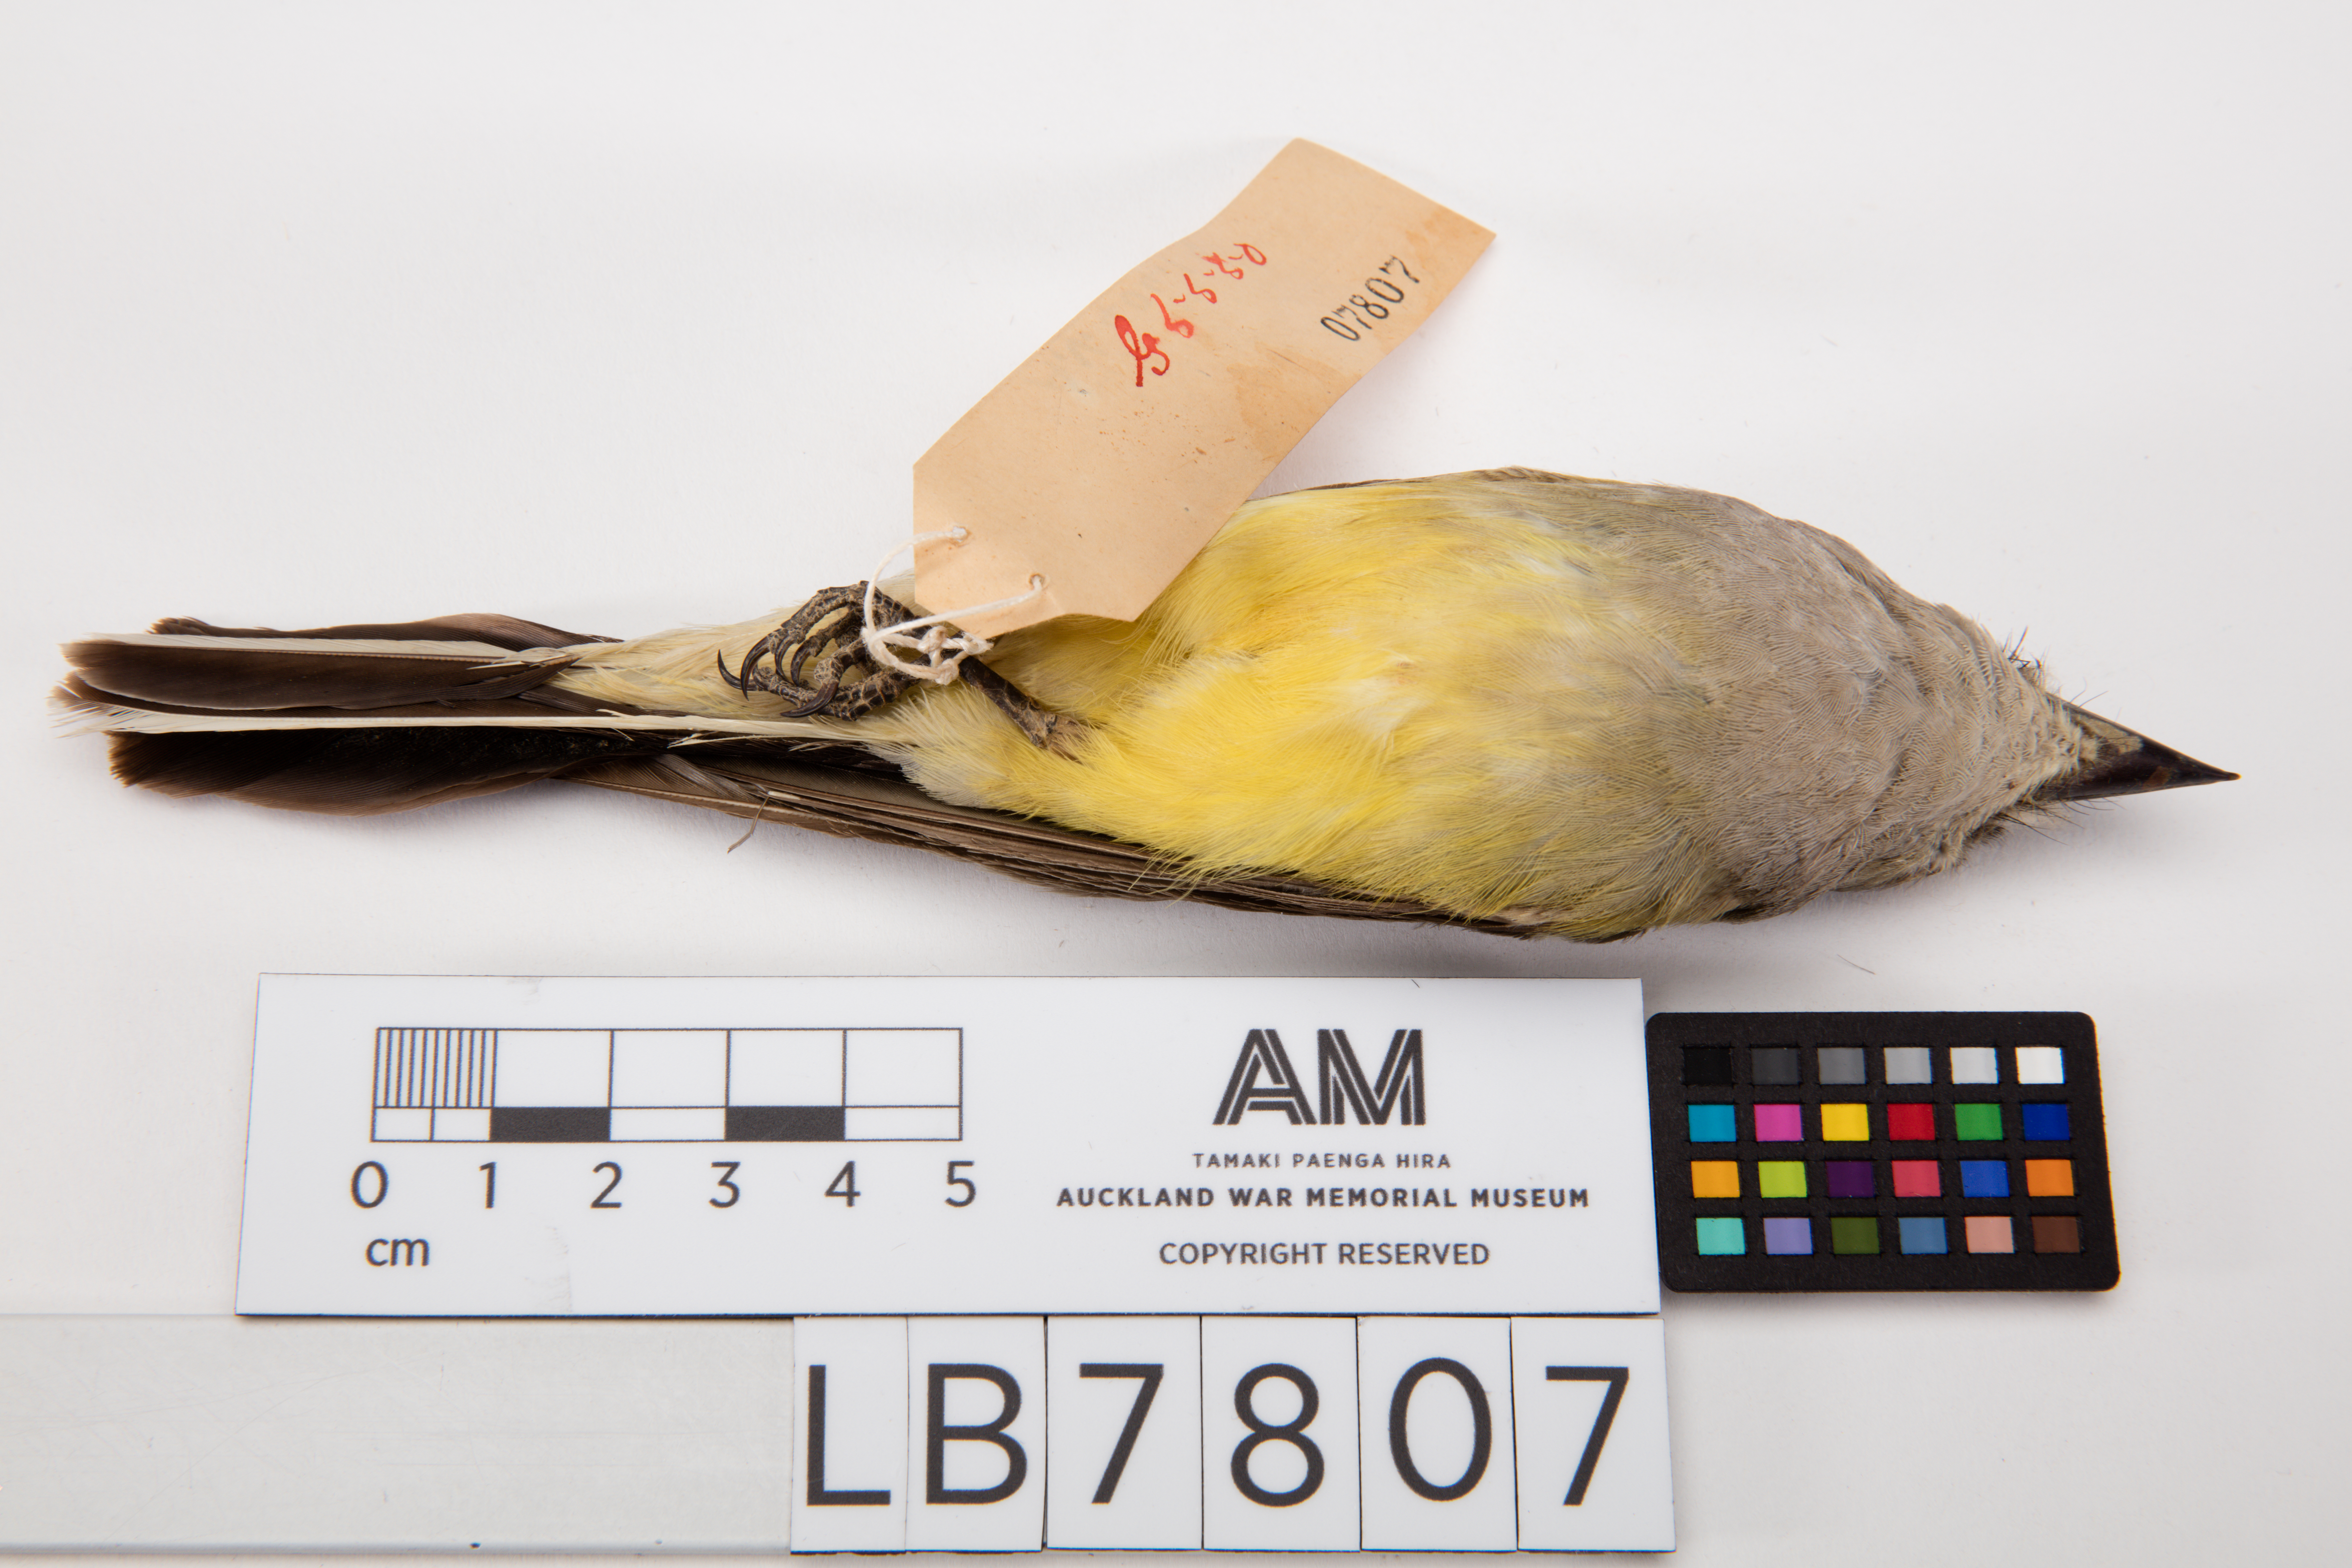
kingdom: Animalia
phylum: Chordata
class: Aves
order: Passeriformes
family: Tyrannidae
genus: Tyrannus
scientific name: Tyrannus verticalis
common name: Western kingbird
